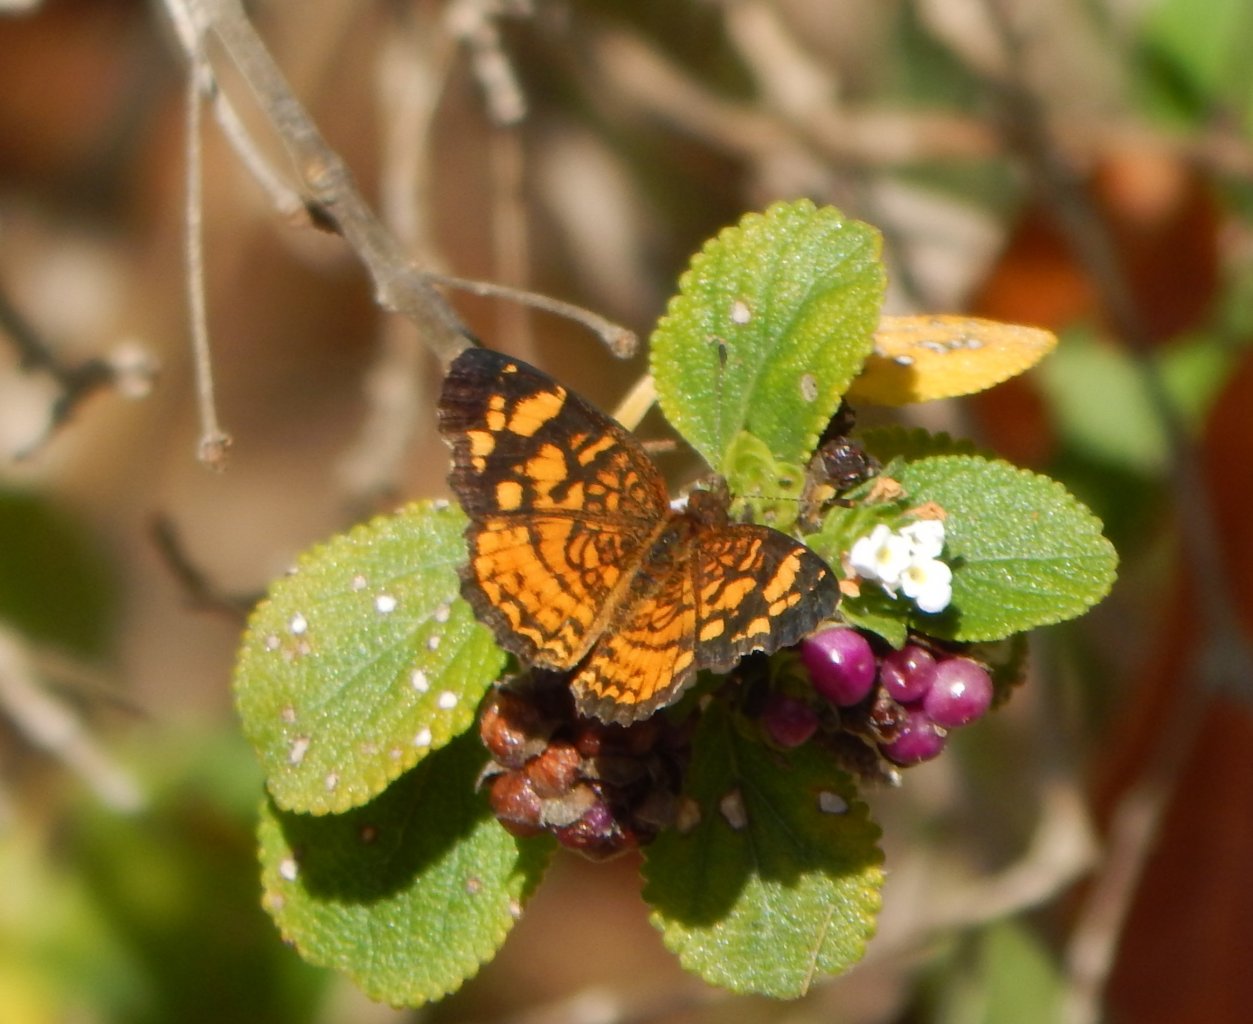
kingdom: Animalia
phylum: Arthropoda
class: Insecta
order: Lepidoptera
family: Nymphalidae
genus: Anthanassa
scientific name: Anthanassa frisia
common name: Cuban Crescent
